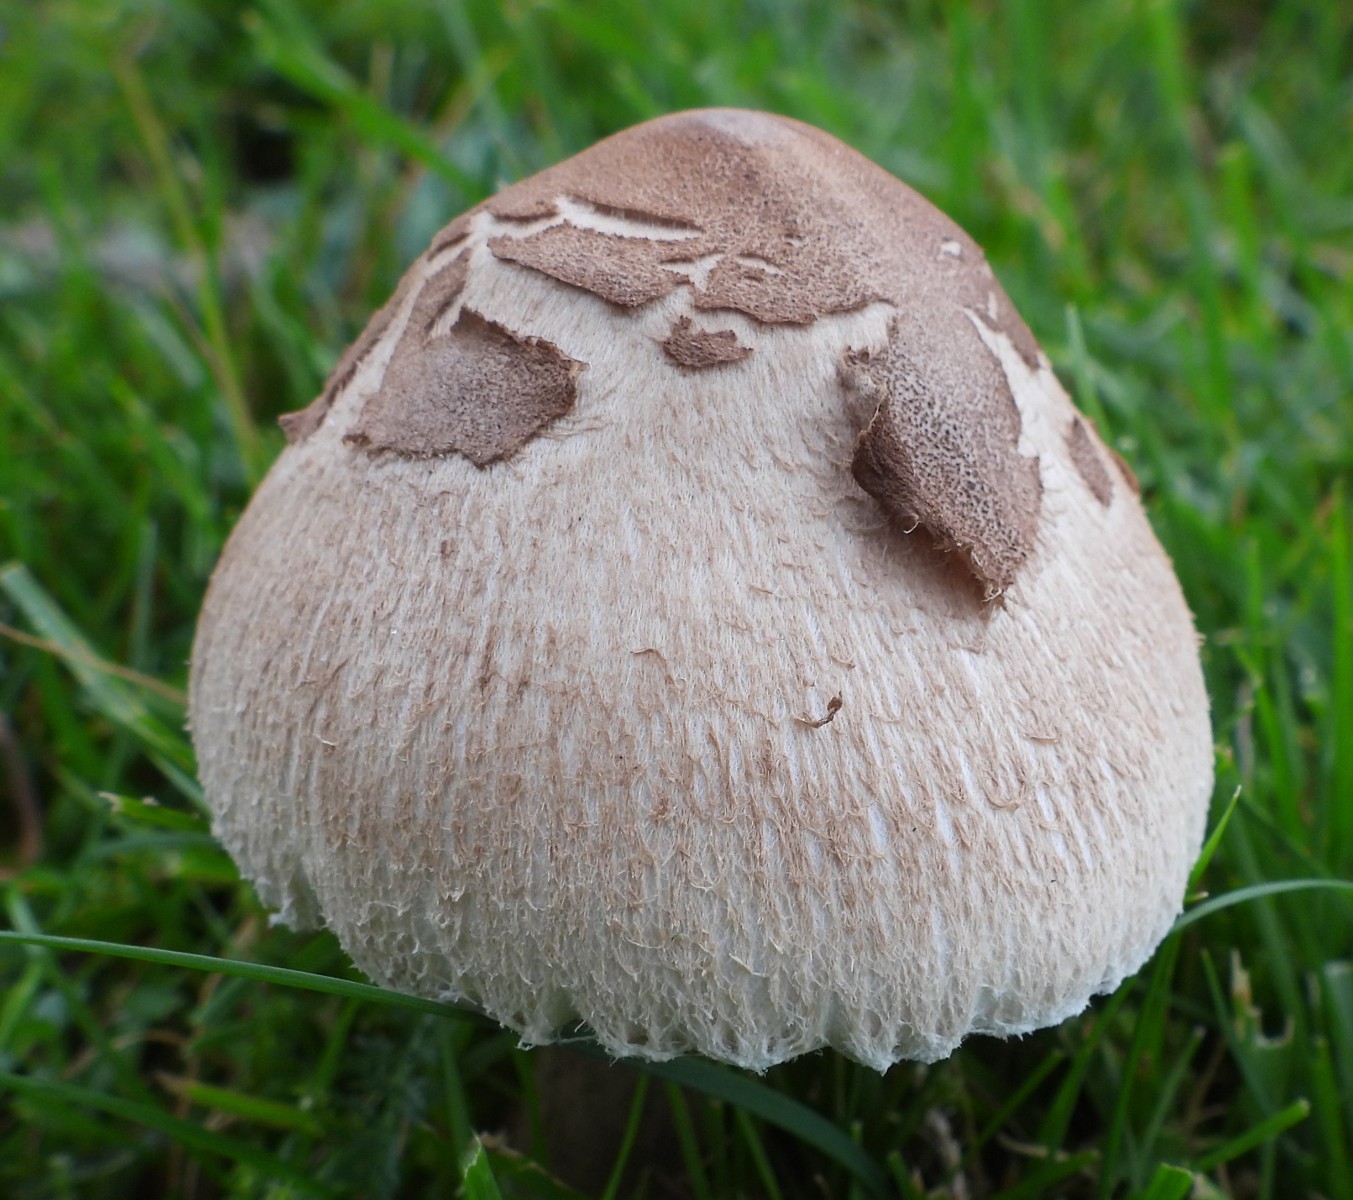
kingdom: Fungi
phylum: Basidiomycota
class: Agaricomycetes
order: Agaricales
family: Agaricaceae
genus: Macrolepiota
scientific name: Macrolepiota mastoidea
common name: puklet kæmpeparasolhat
